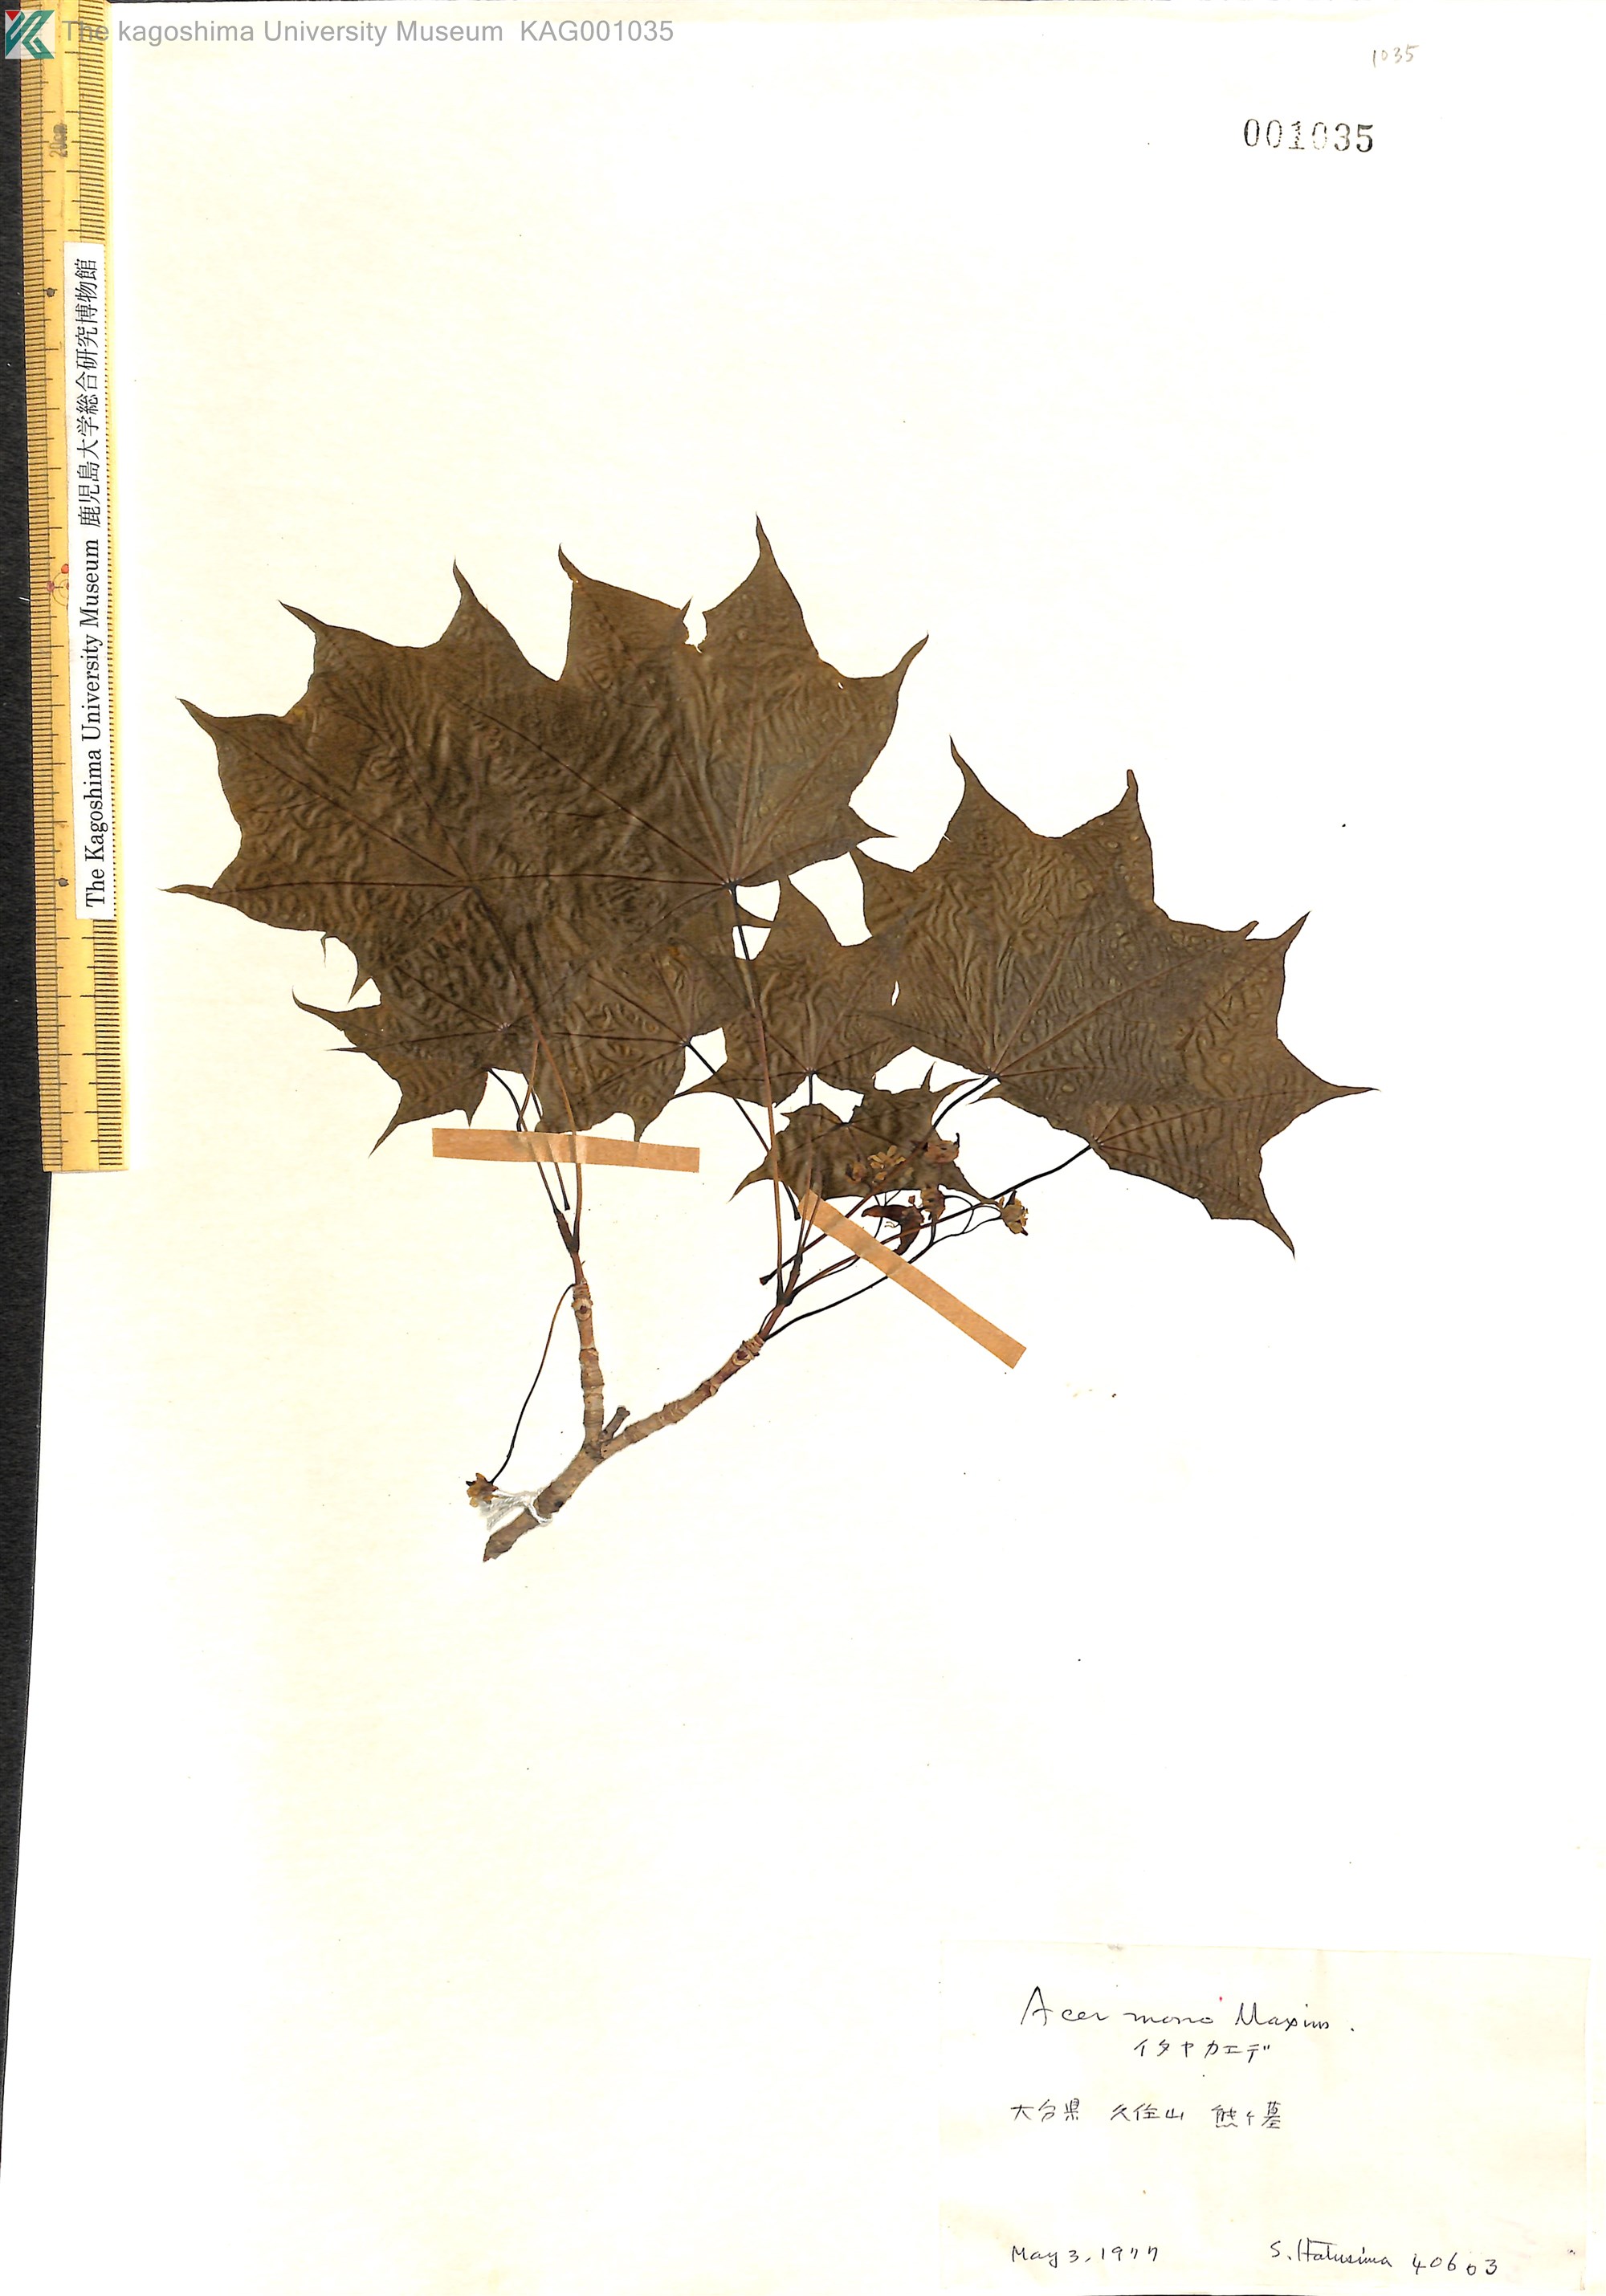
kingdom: Plantae
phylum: Tracheophyta
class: Magnoliopsida
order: Sapindales
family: Sapindaceae
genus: Acer
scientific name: Acer pictum
